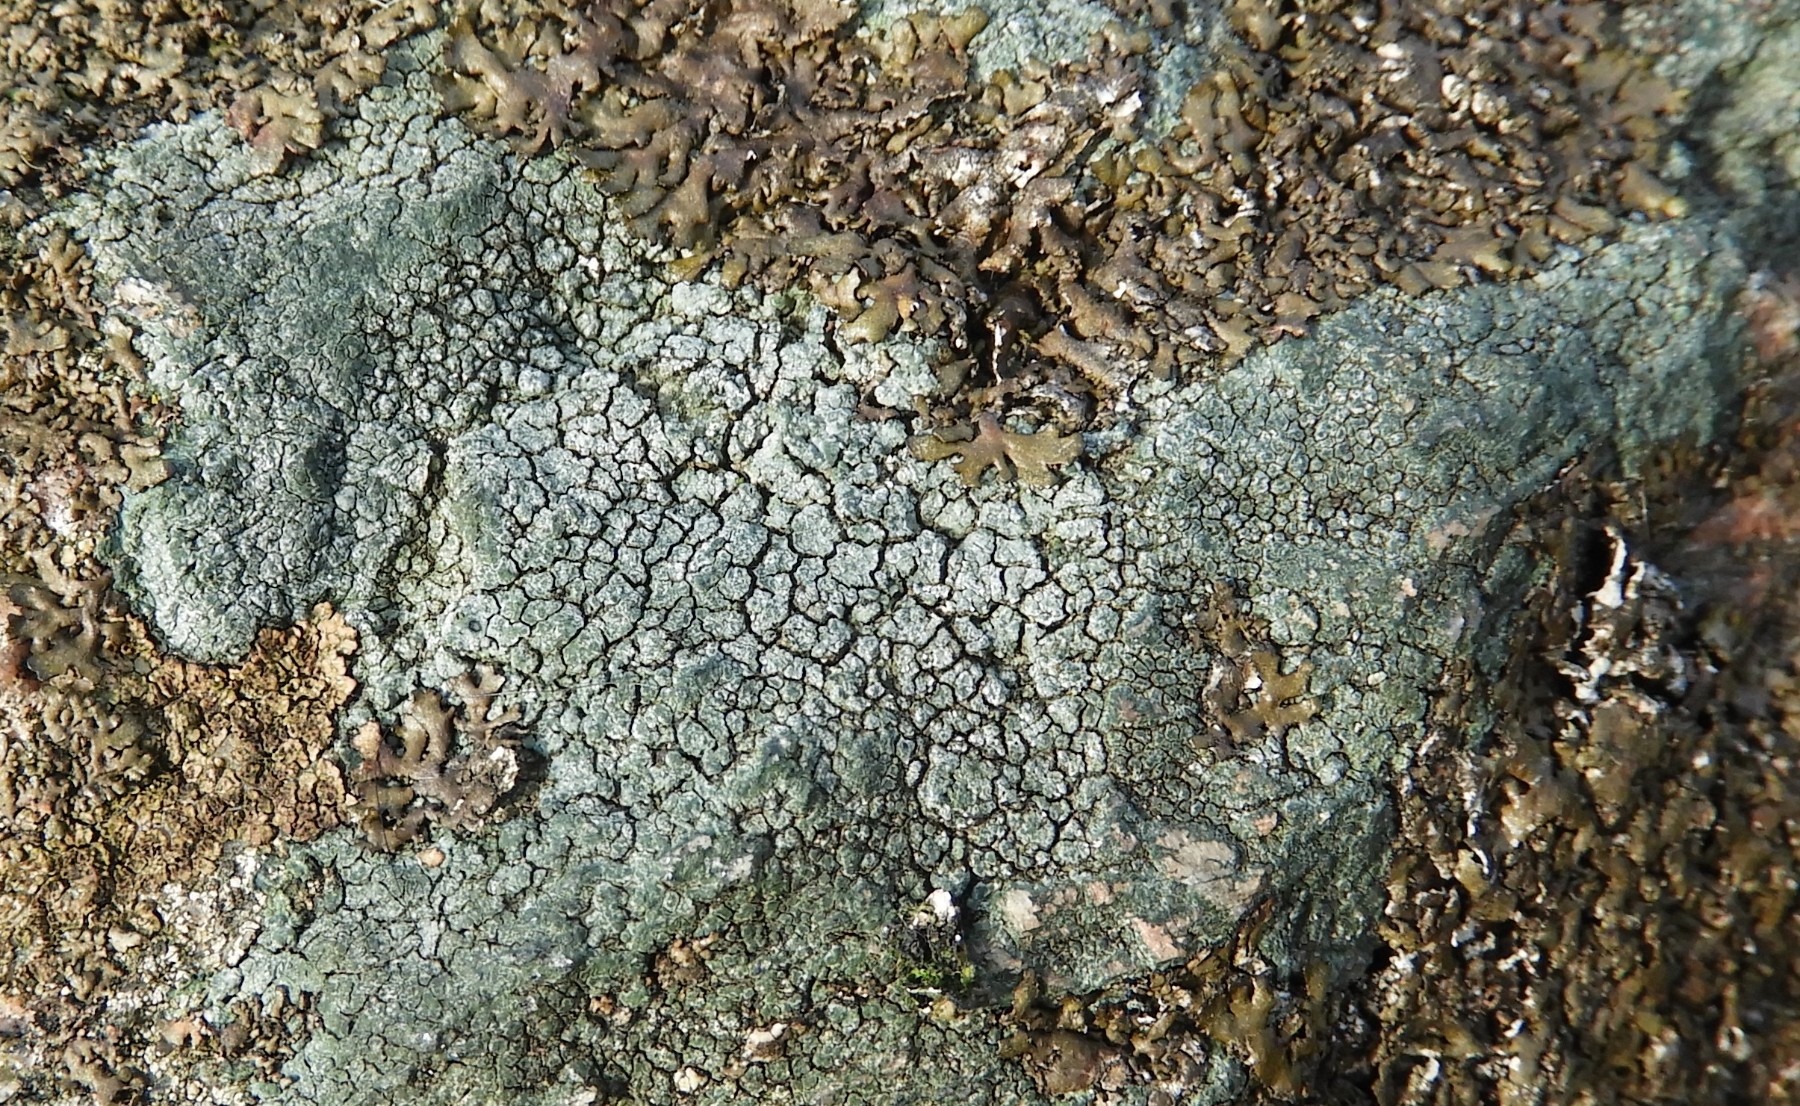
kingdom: Fungi
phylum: Ascomycota
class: Lecanoromycetes
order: Pertusariales
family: Megasporaceae
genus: Circinaria
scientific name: Circinaria caesiocinerea
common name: fuglestens-hulskivelav
